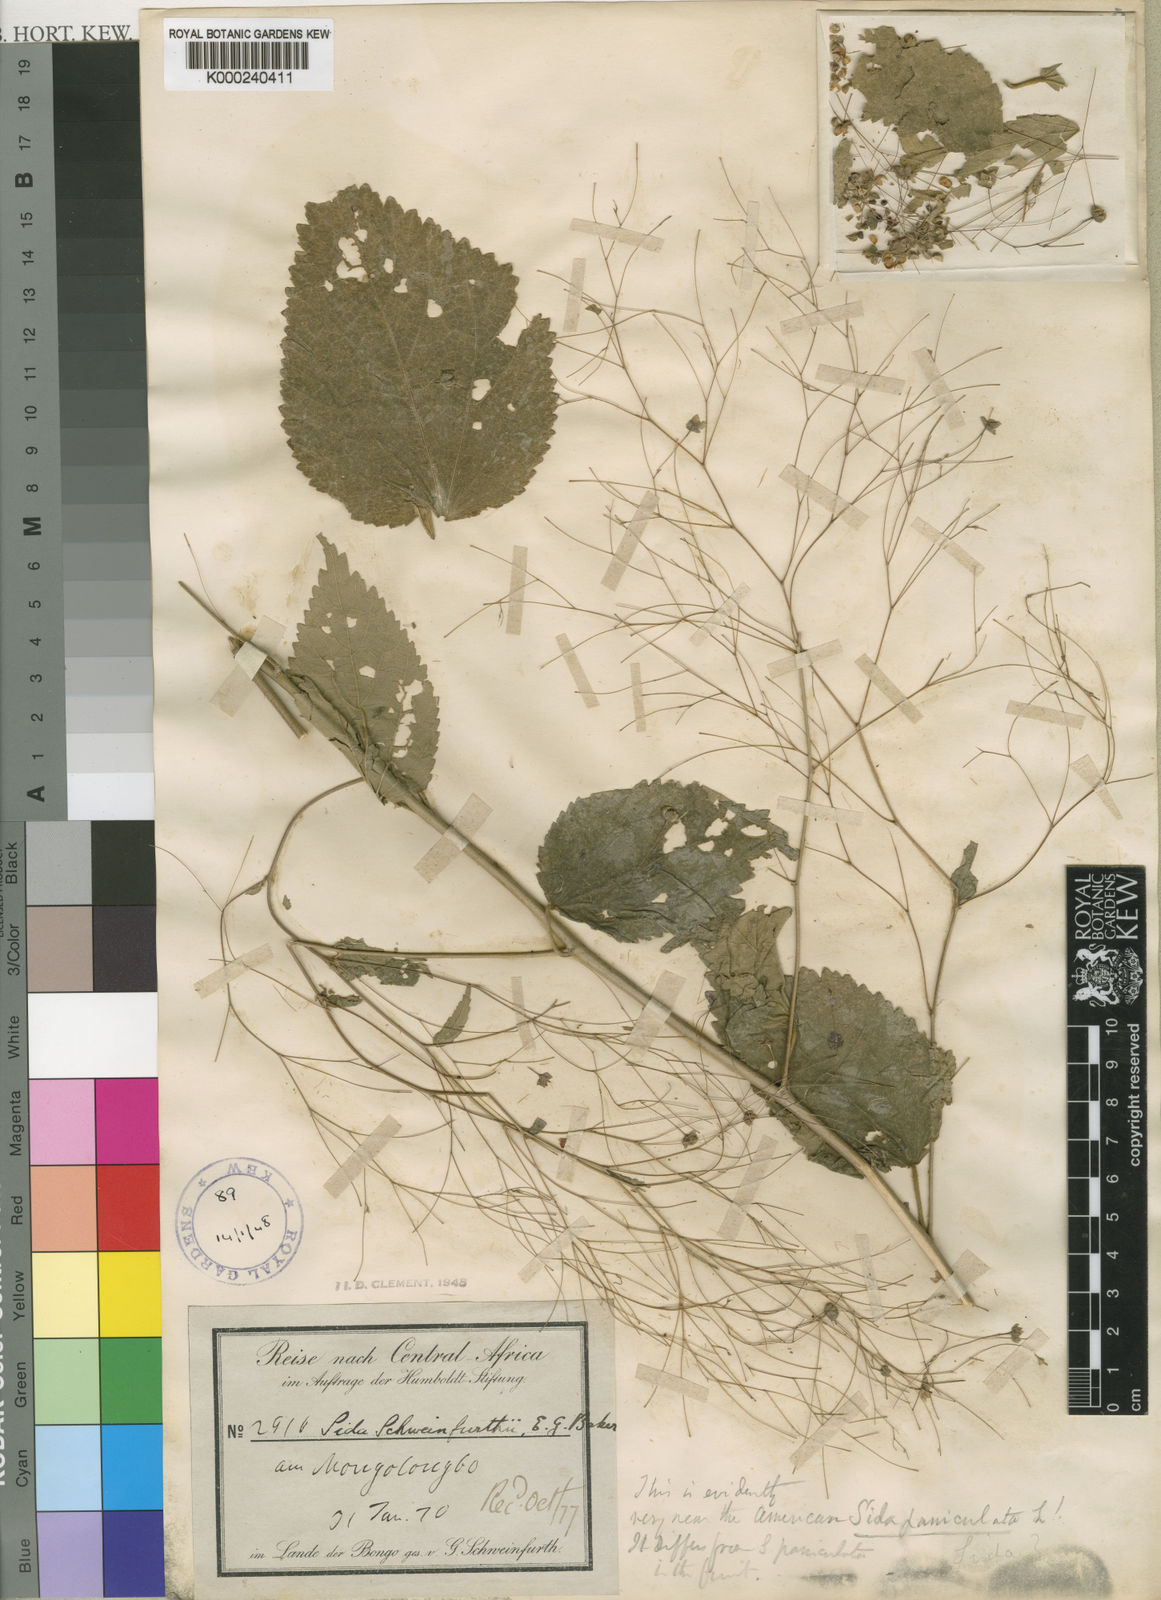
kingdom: Plantae
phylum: Tracheophyta
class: Magnoliopsida
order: Malvales
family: Malvaceae
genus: Sidastrum
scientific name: Sidastrum paniculatum
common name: Panicled sandmallow
